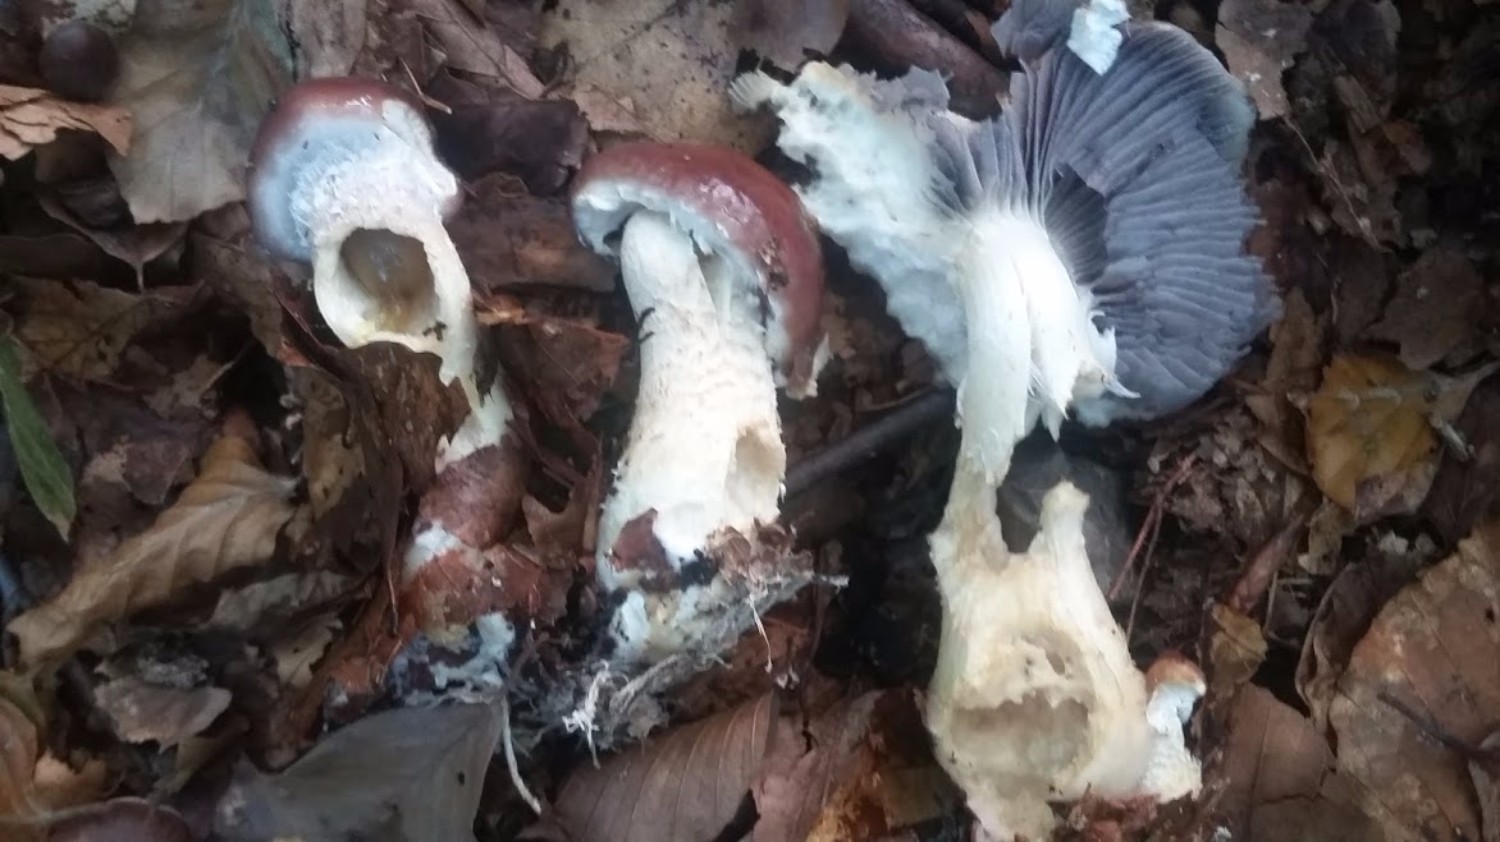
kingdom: Fungi
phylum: Basidiomycota
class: Agaricomycetes
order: Agaricales
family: Strophariaceae
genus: Stropharia
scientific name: Stropharia hornemannii
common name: nordisk bredblad
